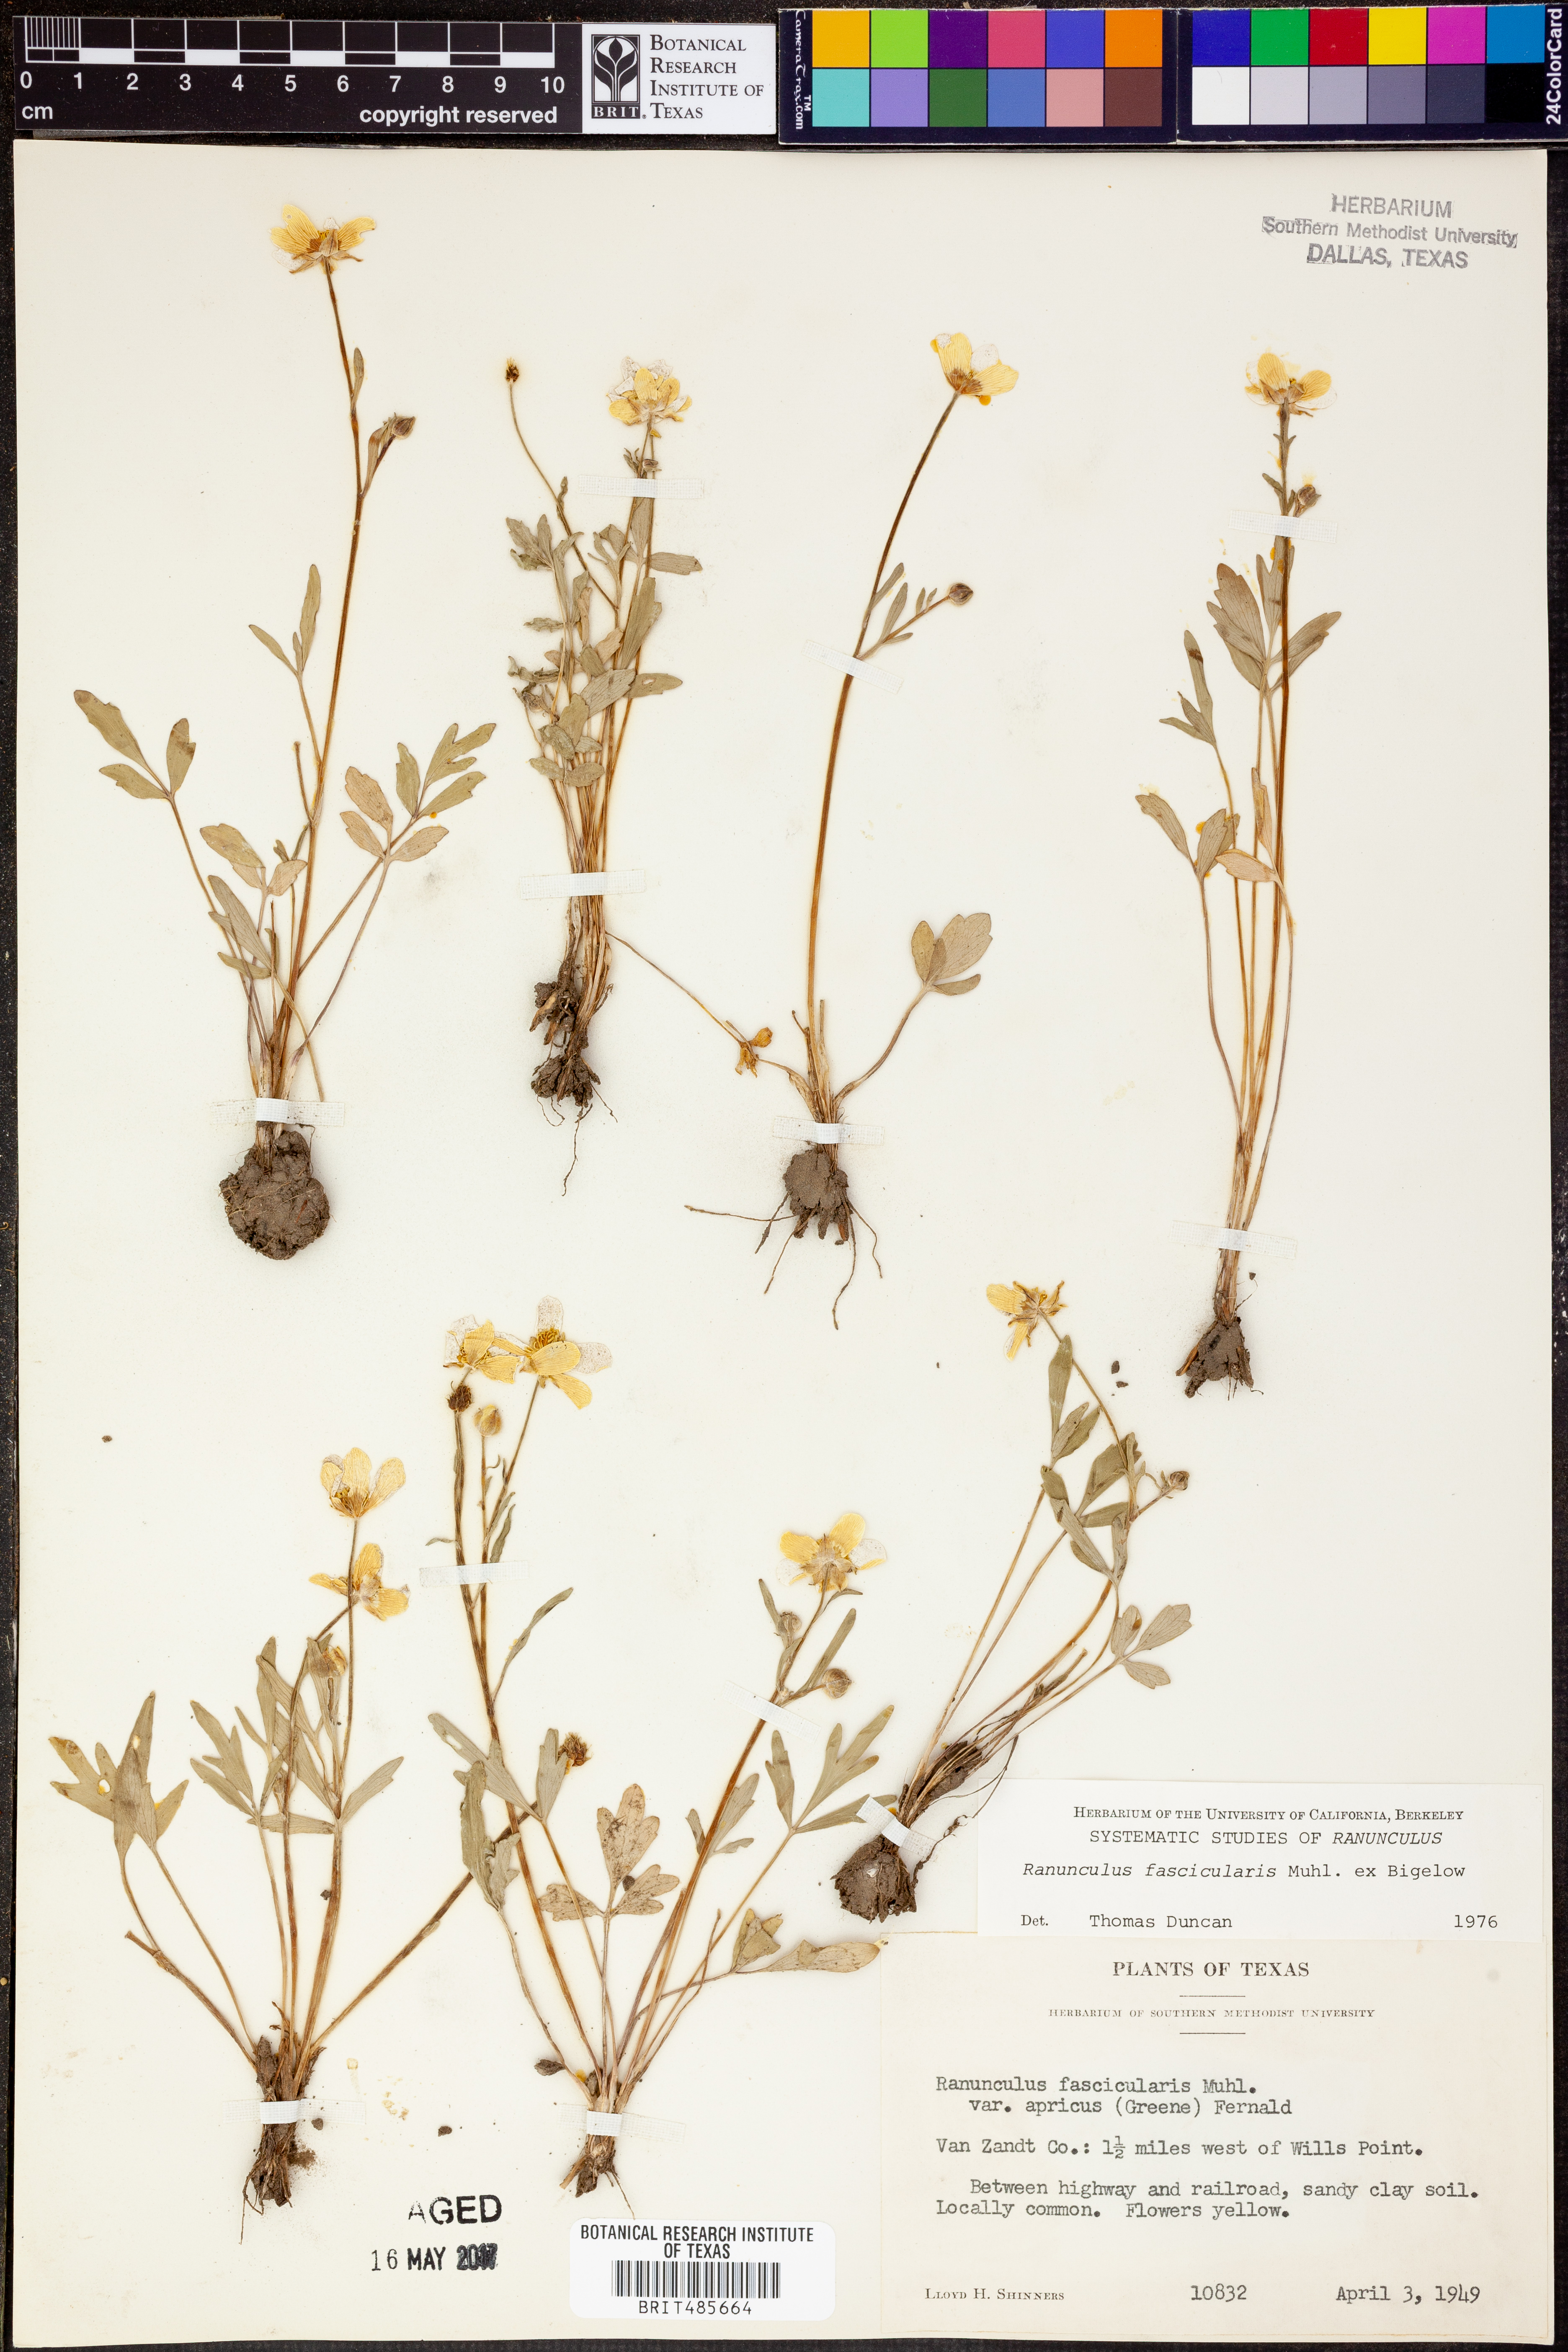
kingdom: Plantae
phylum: Tracheophyta
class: Magnoliopsida
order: Ranunculales
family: Ranunculaceae
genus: Ranunculus
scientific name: Ranunculus fascicularis
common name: Early buttercup
